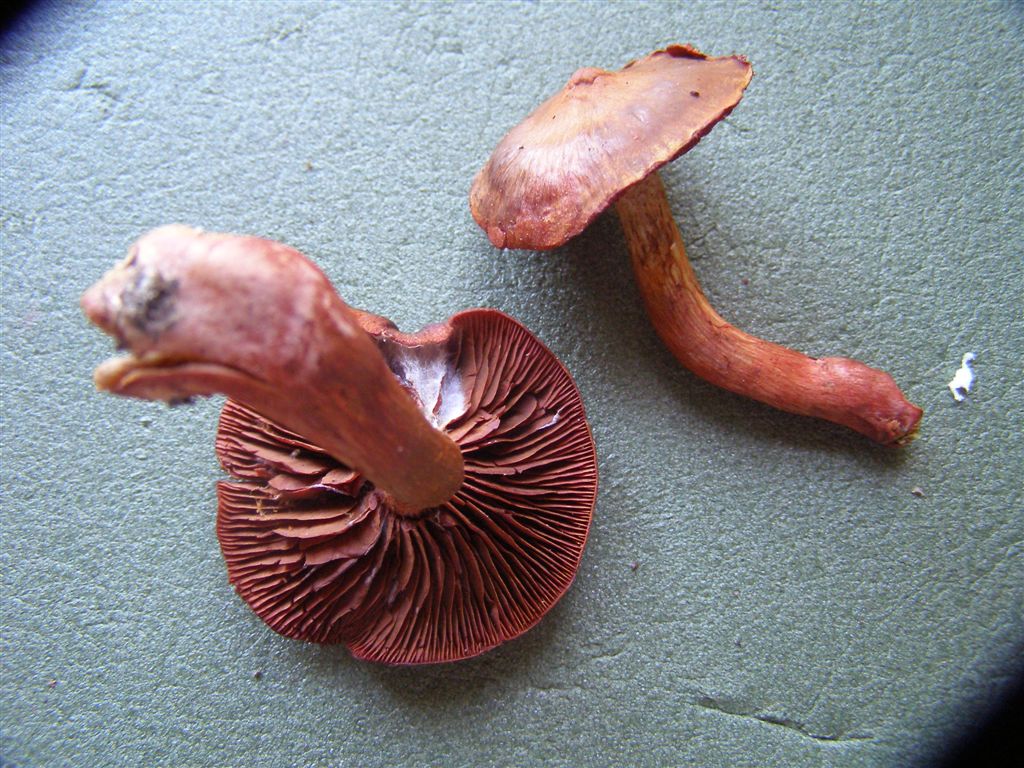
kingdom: Fungi
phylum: Basidiomycota
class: Agaricomycetes
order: Agaricales
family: Cortinariaceae
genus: Cortinarius
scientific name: Cortinarius sanguineus
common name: blodrød slørhat
